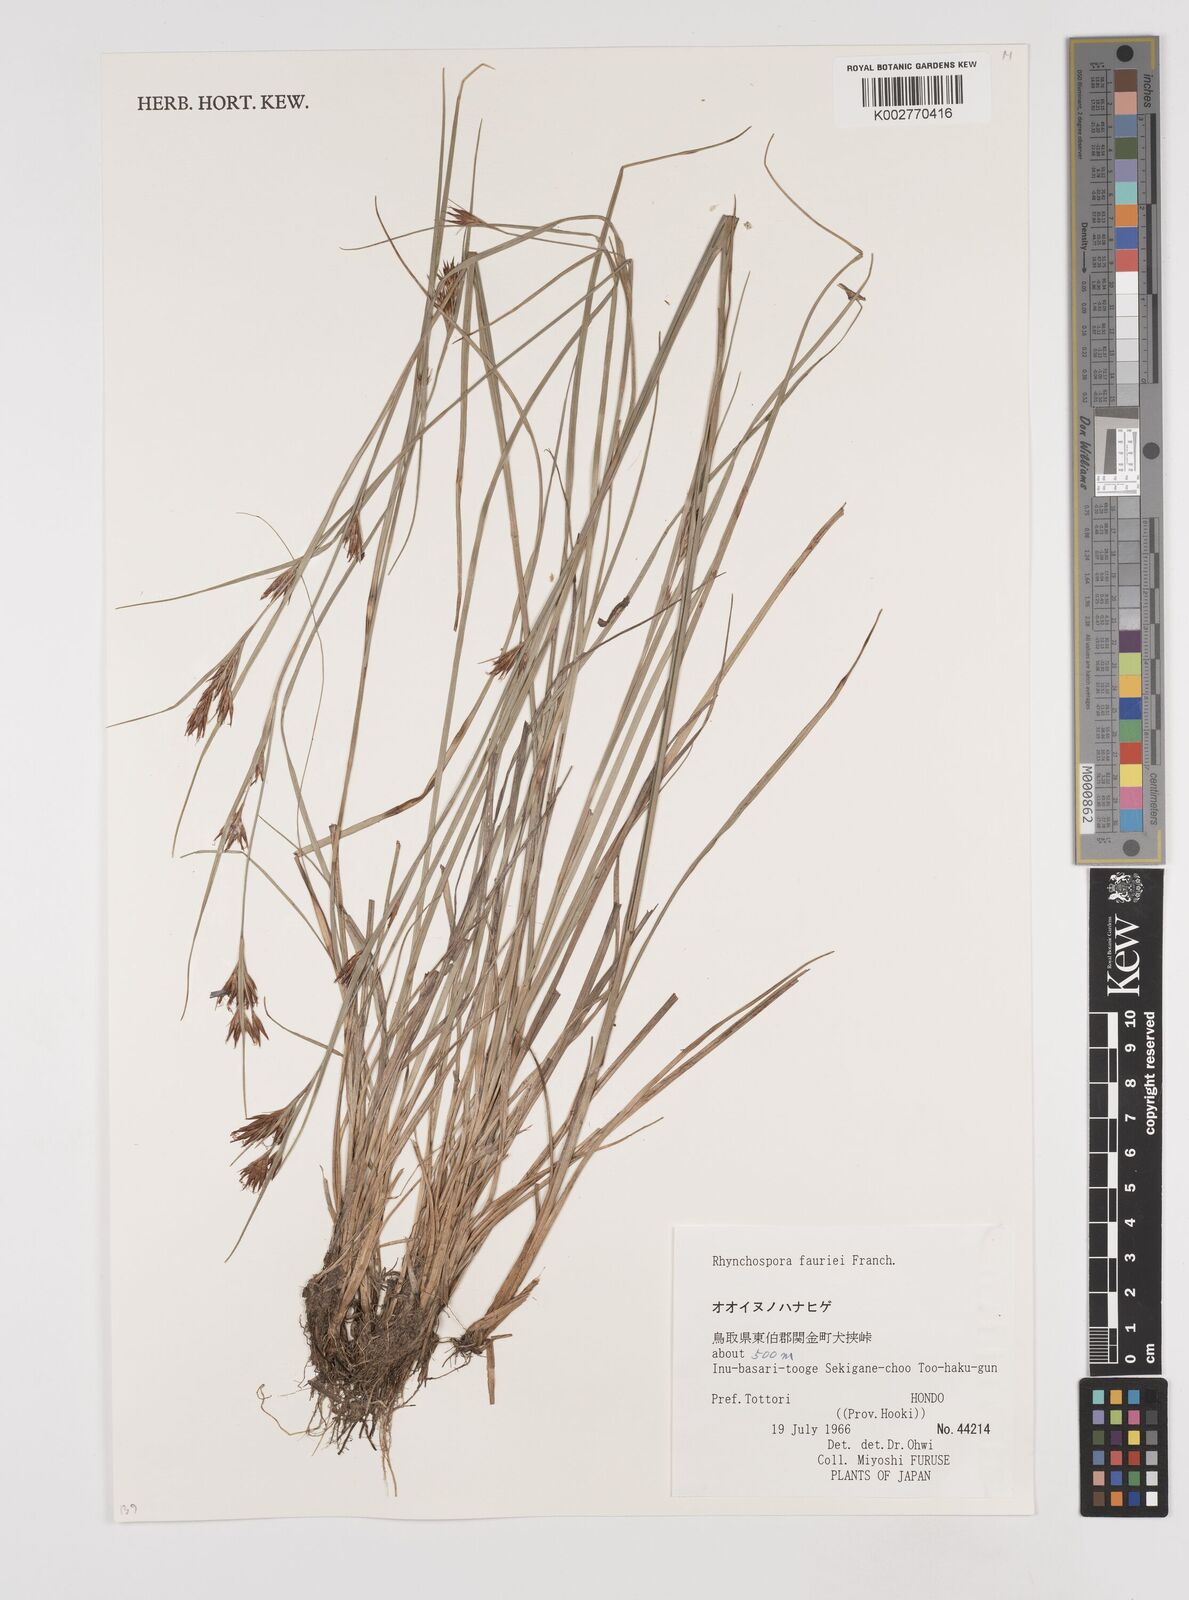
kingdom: Plantae
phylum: Tracheophyta
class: Liliopsida
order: Poales
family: Cyperaceae
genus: Rhynchospora
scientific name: Rhynchospora fauriei
